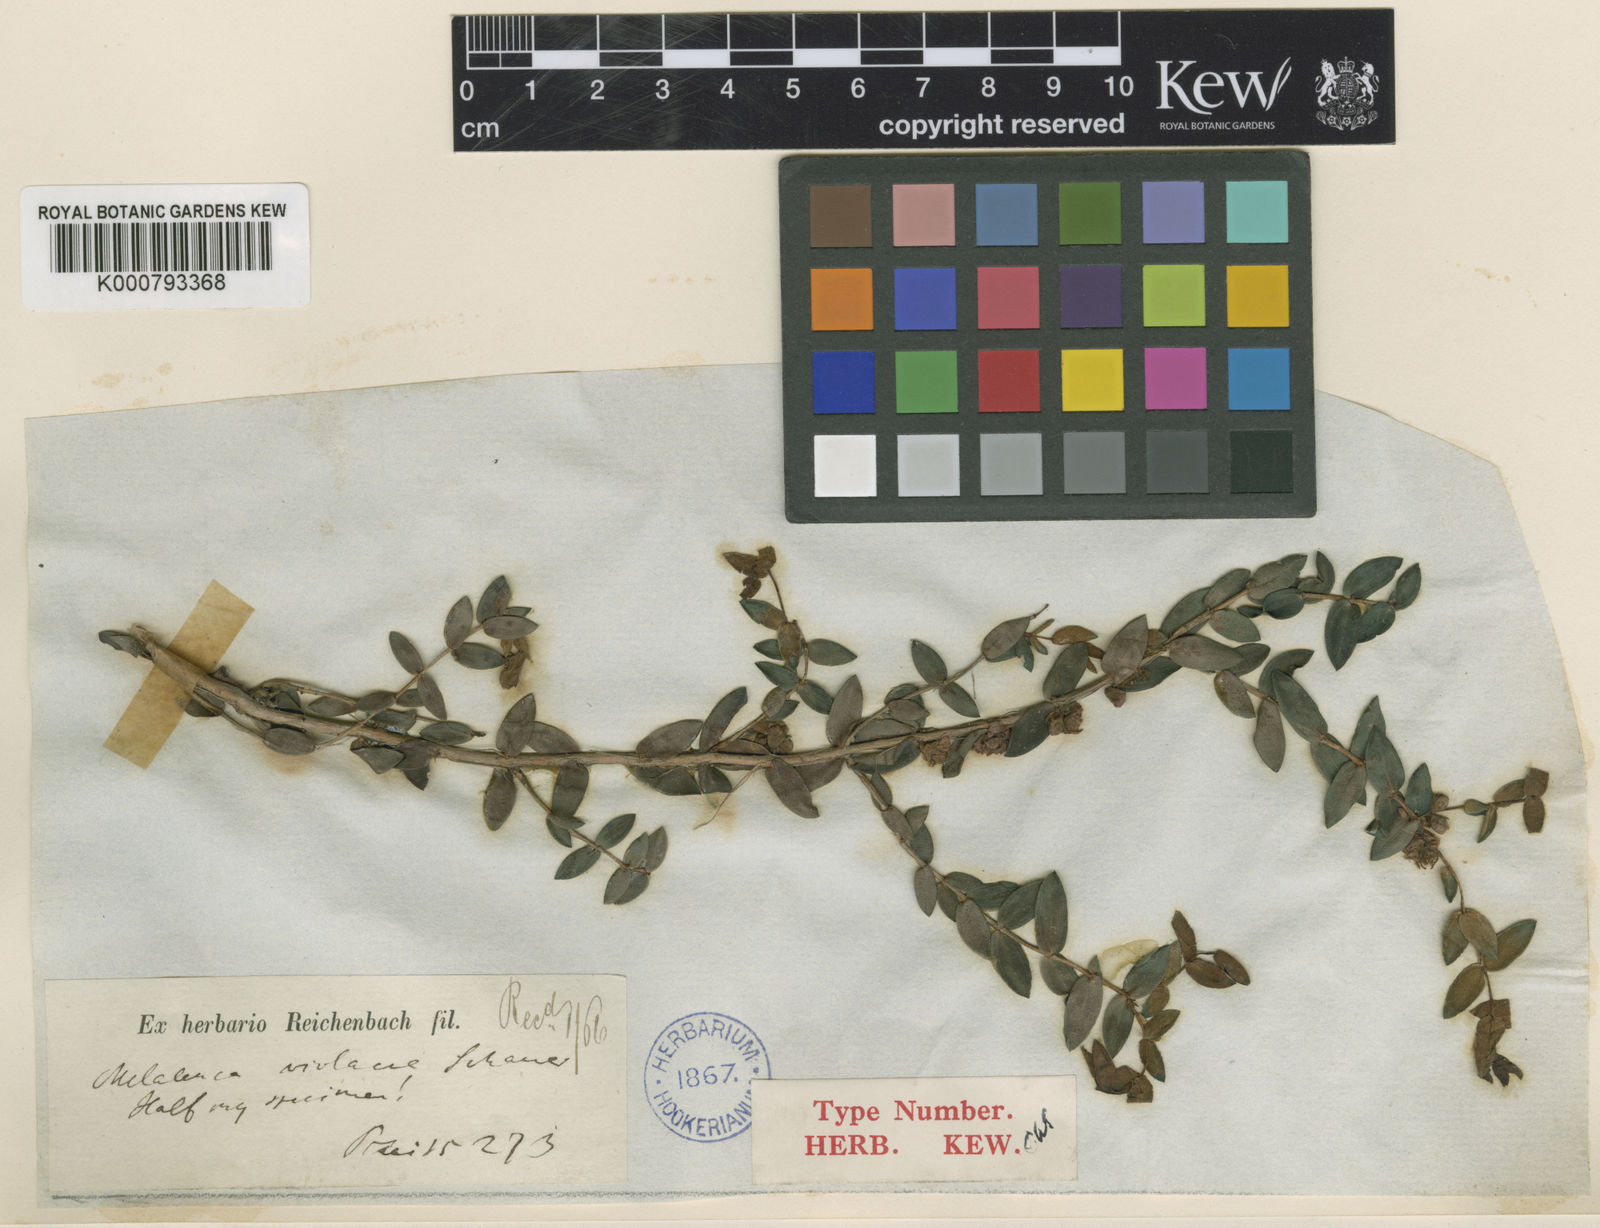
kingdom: Plantae
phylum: Tracheophyta
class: Magnoliopsida
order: Myrtales
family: Myrtaceae
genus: Melaleuca
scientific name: Melaleuca violacea
